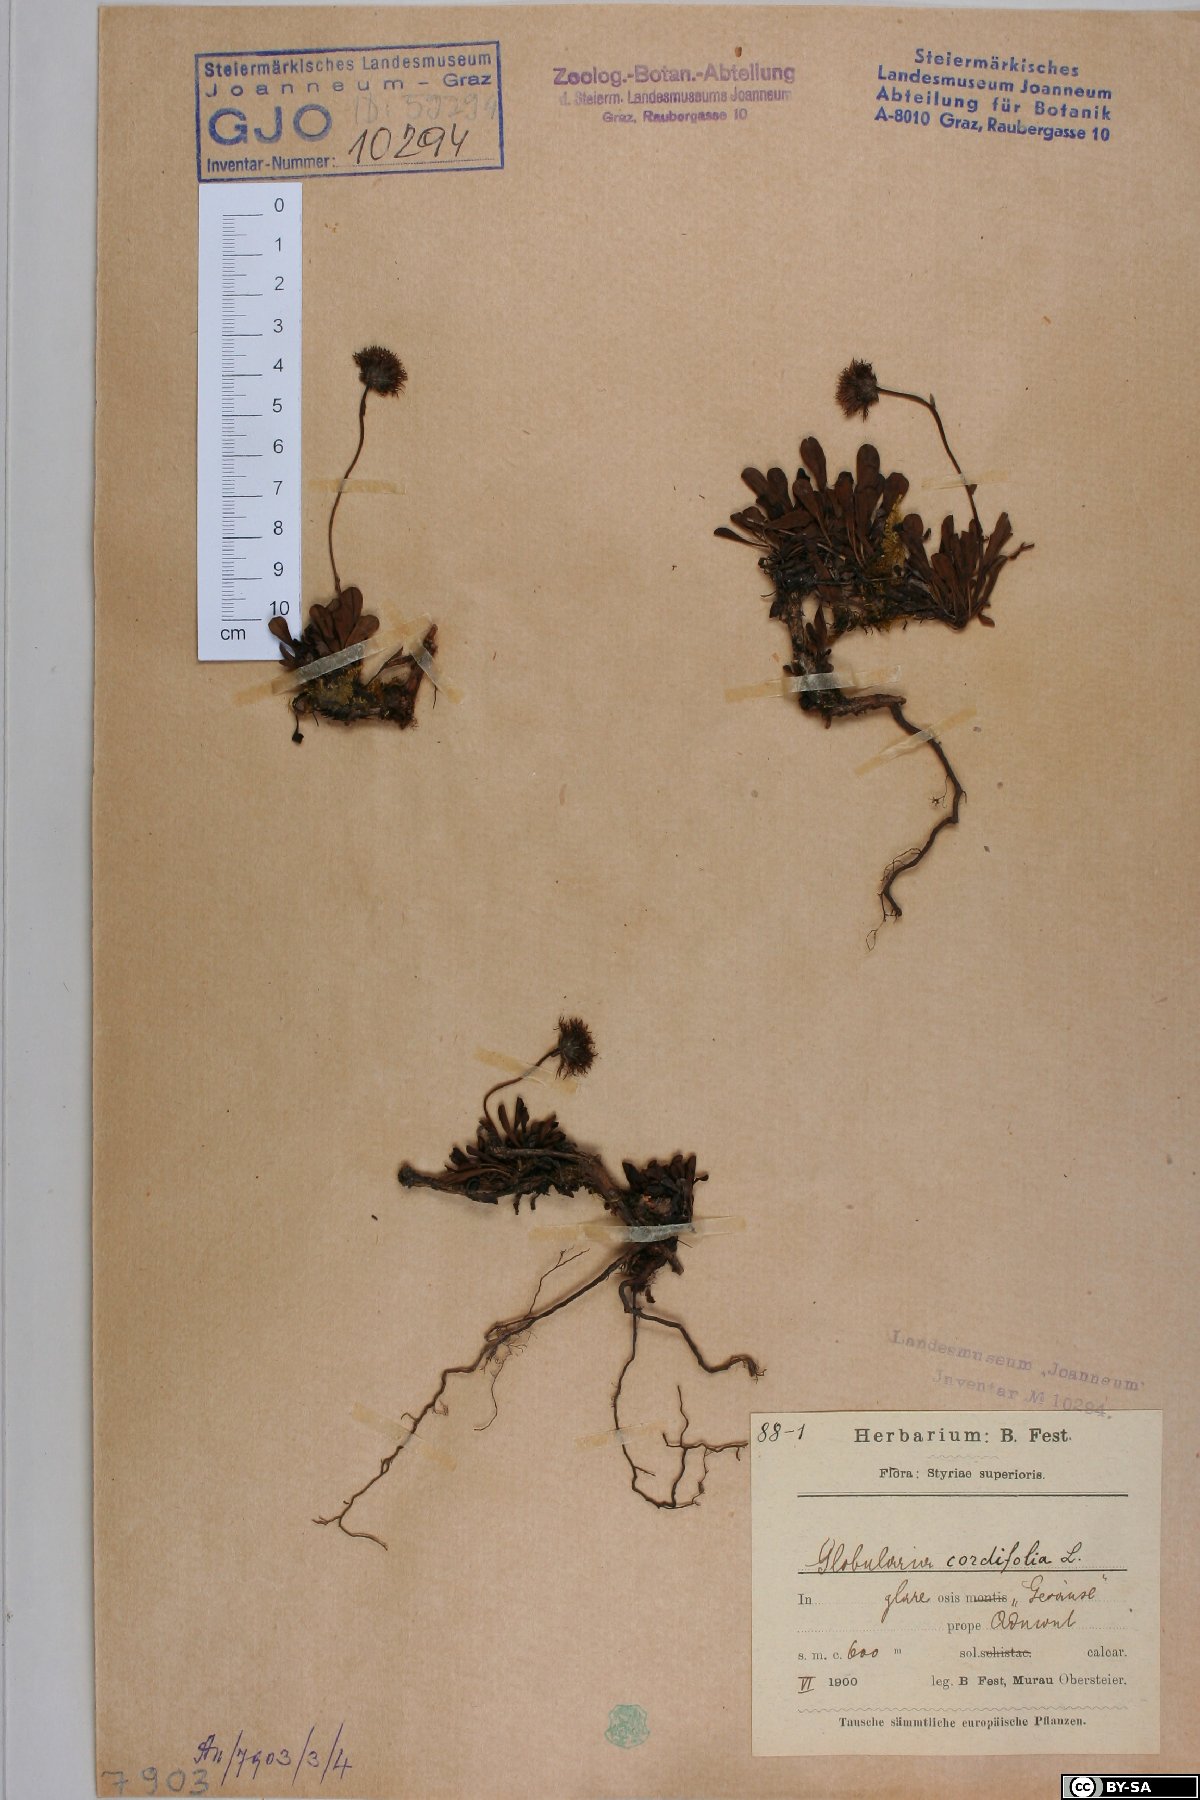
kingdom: Plantae
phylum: Tracheophyta
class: Magnoliopsida
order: Lamiales
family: Plantaginaceae
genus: Globularia
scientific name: Globularia cordifolia
